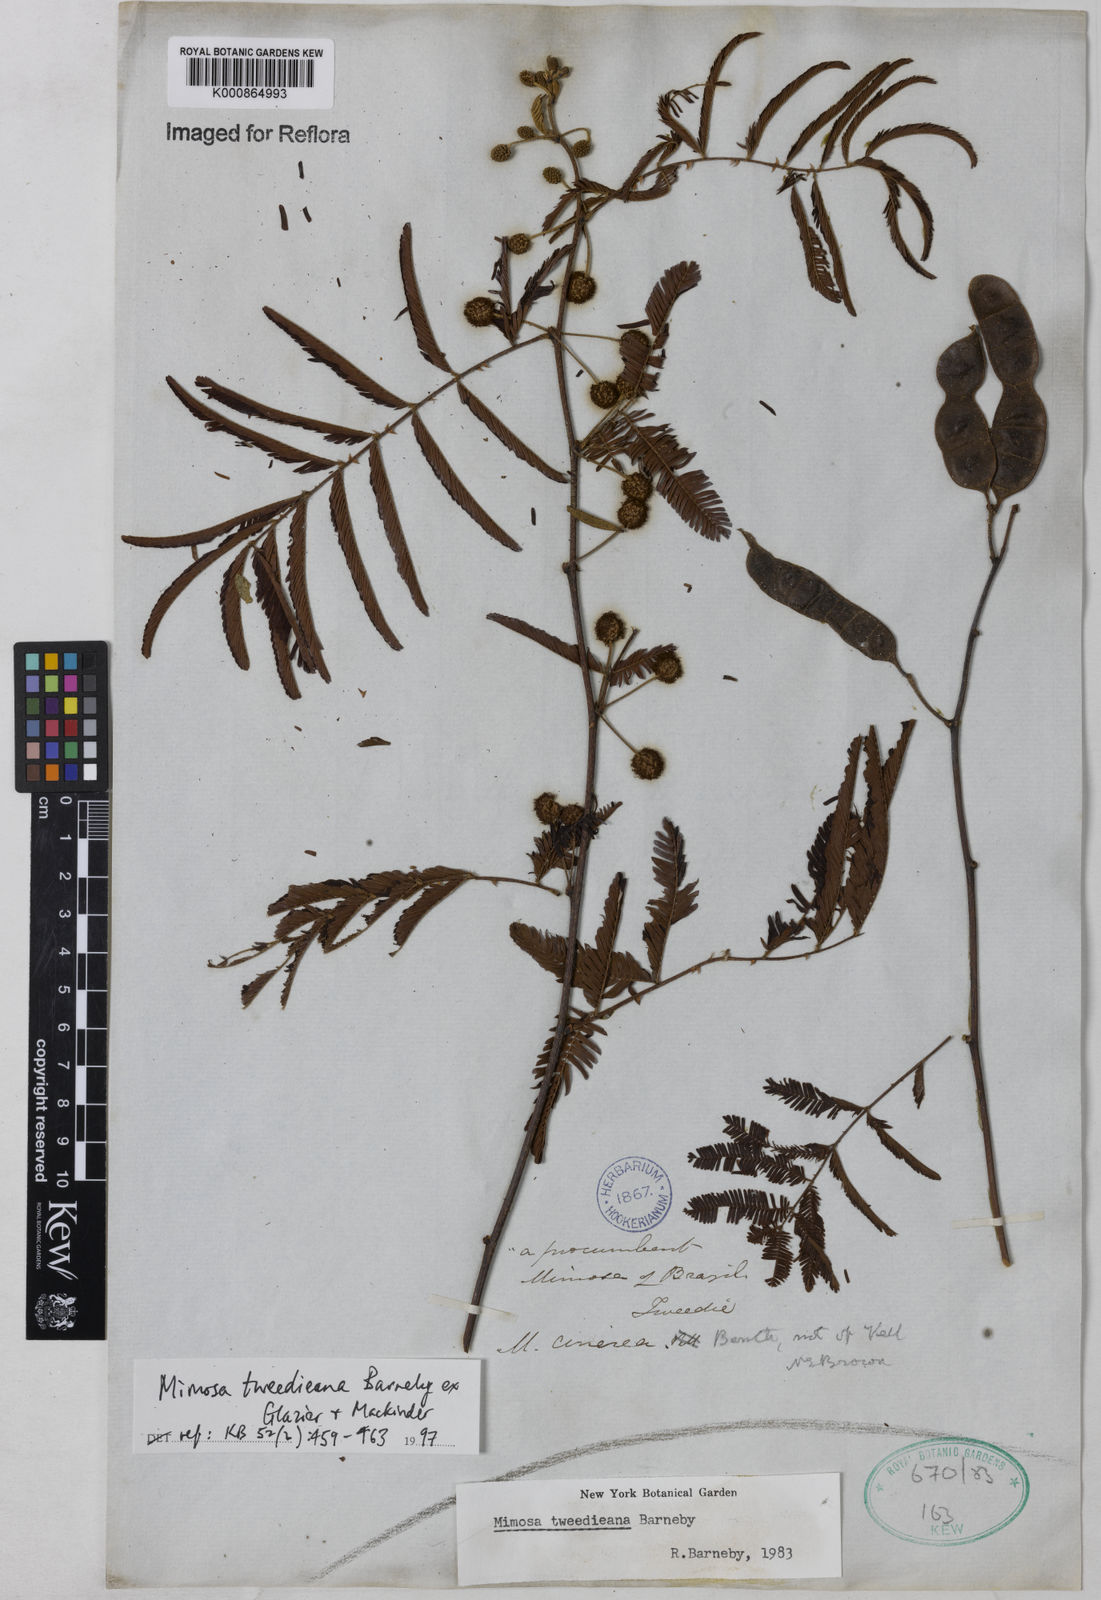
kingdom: Plantae
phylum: Tracheophyta
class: Magnoliopsida
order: Fabales
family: Fabaceae
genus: Mimosa
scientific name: Mimosa tweedieana
